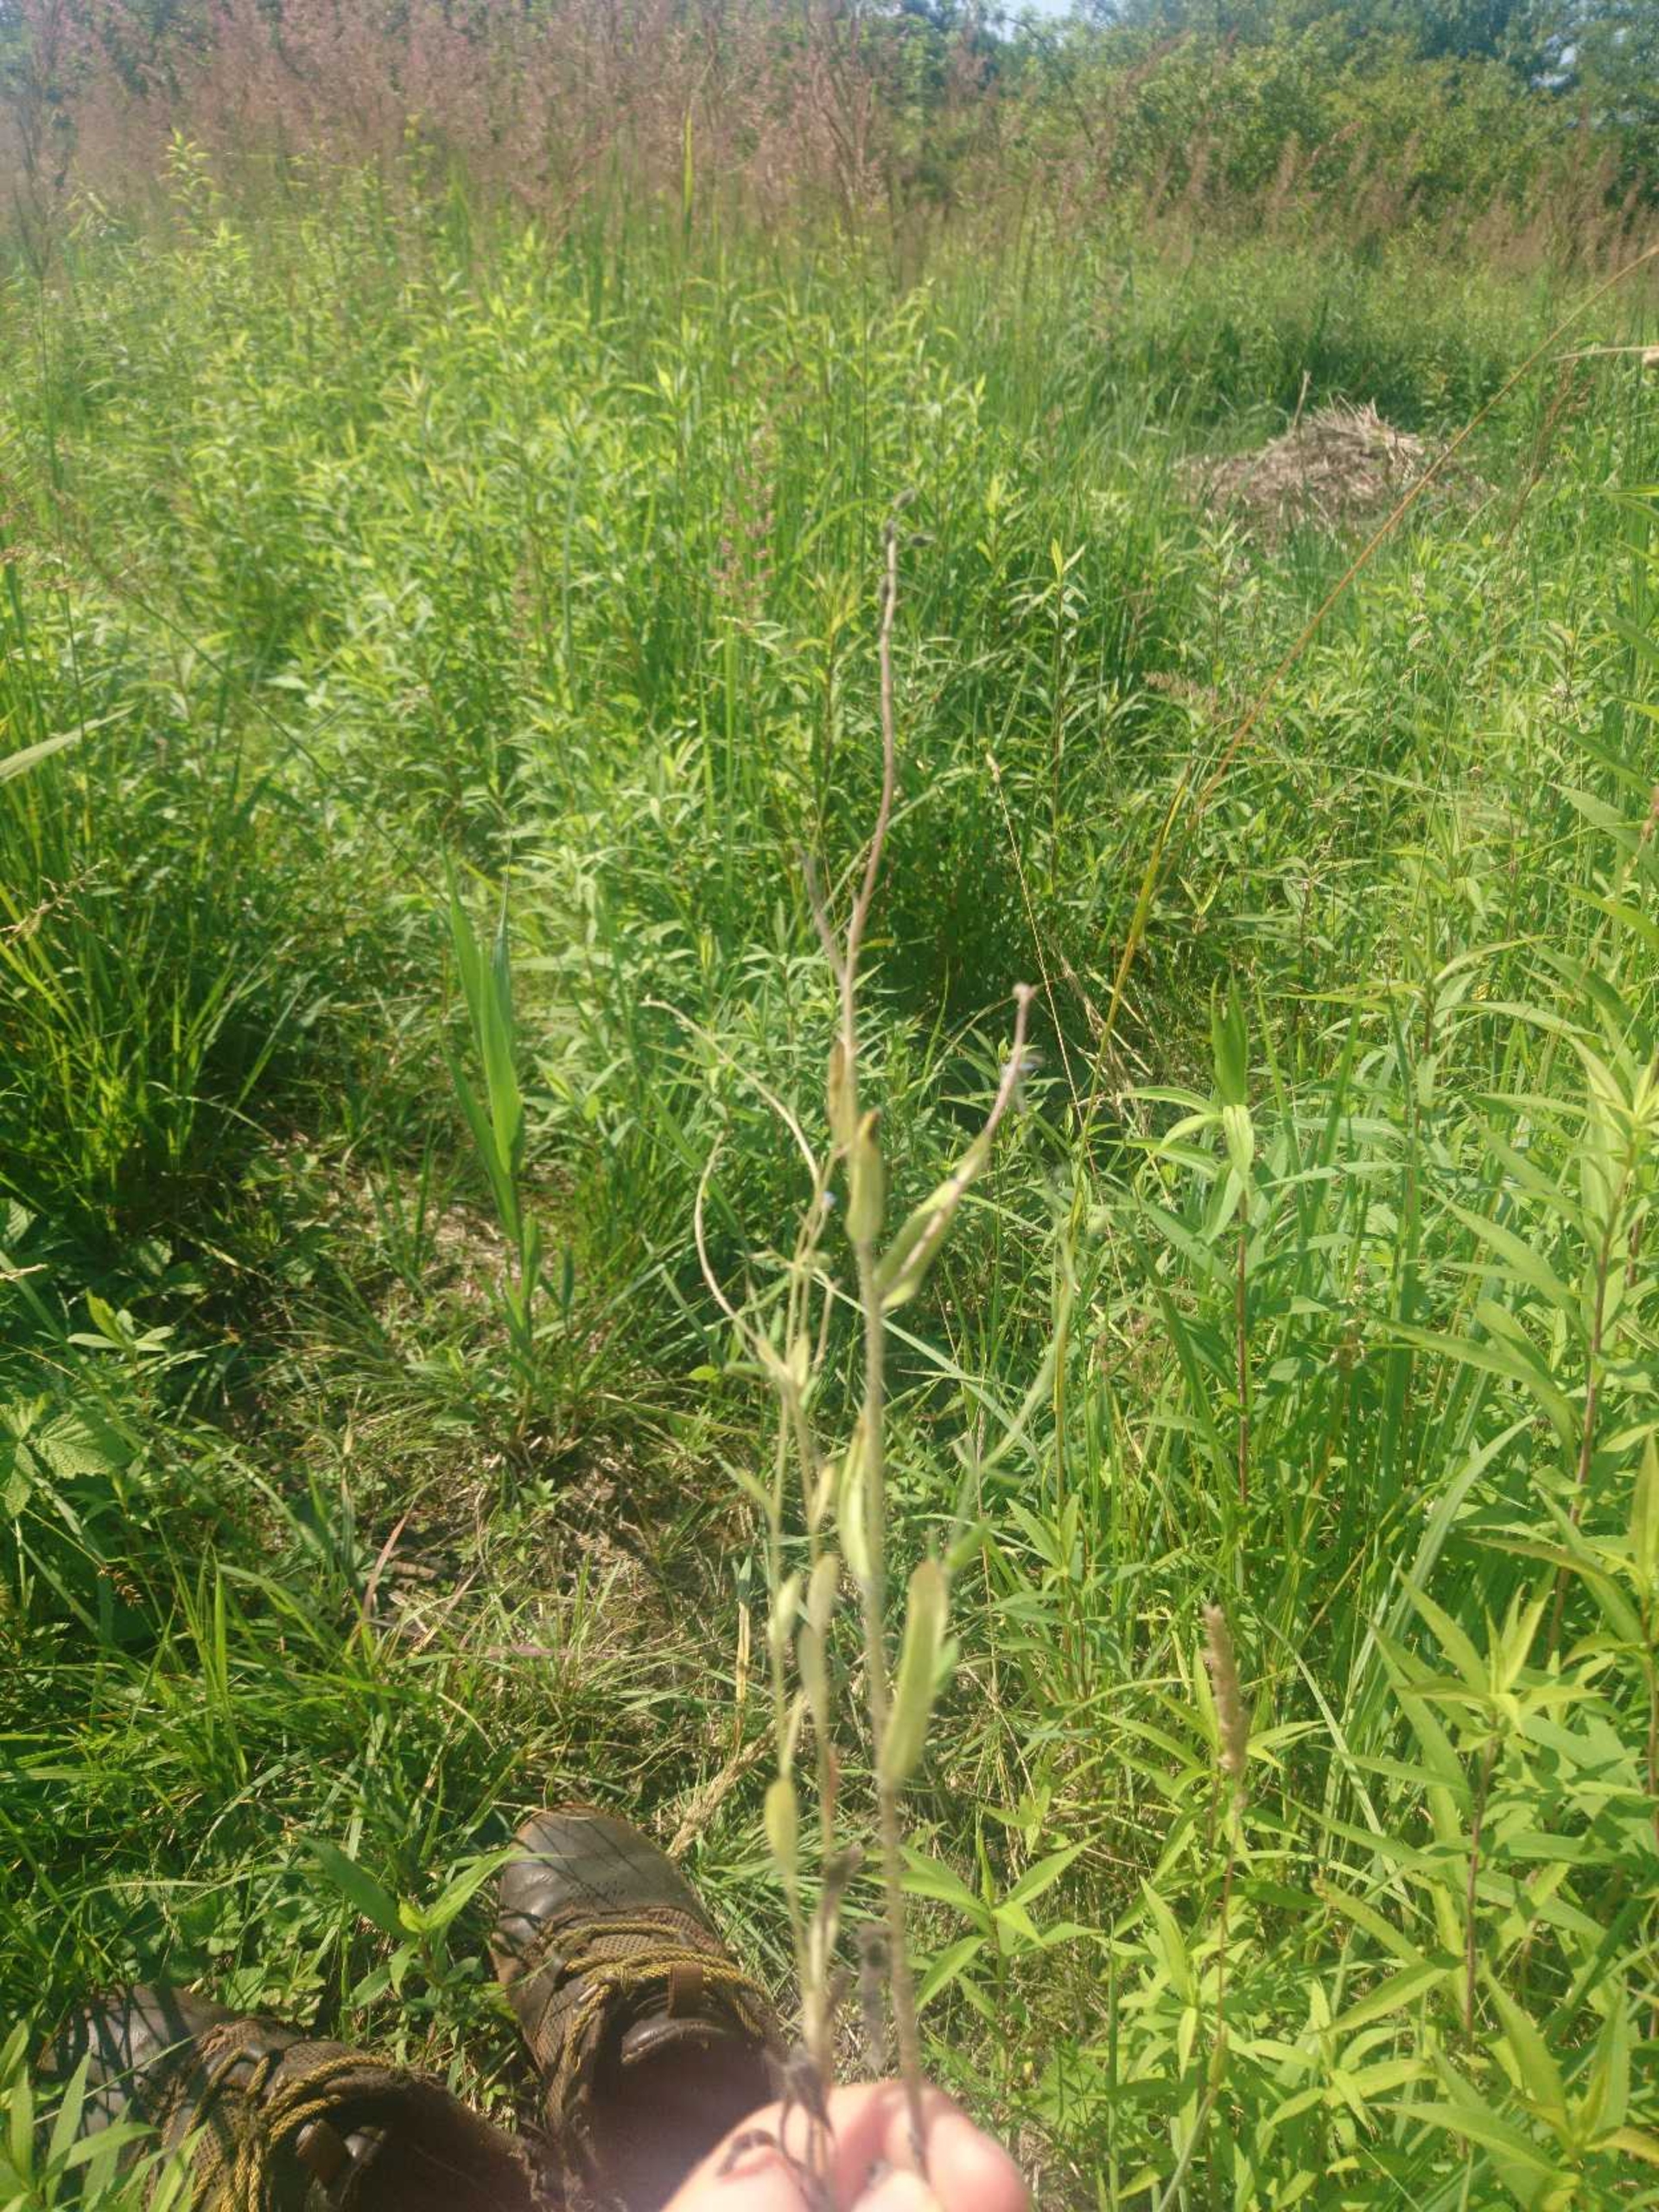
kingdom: Plantae
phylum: Tracheophyta
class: Magnoliopsida
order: Boraginales
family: Boraginaceae
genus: Myosotis
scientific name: Myosotis arvensis
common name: Mark-forglemmigej
